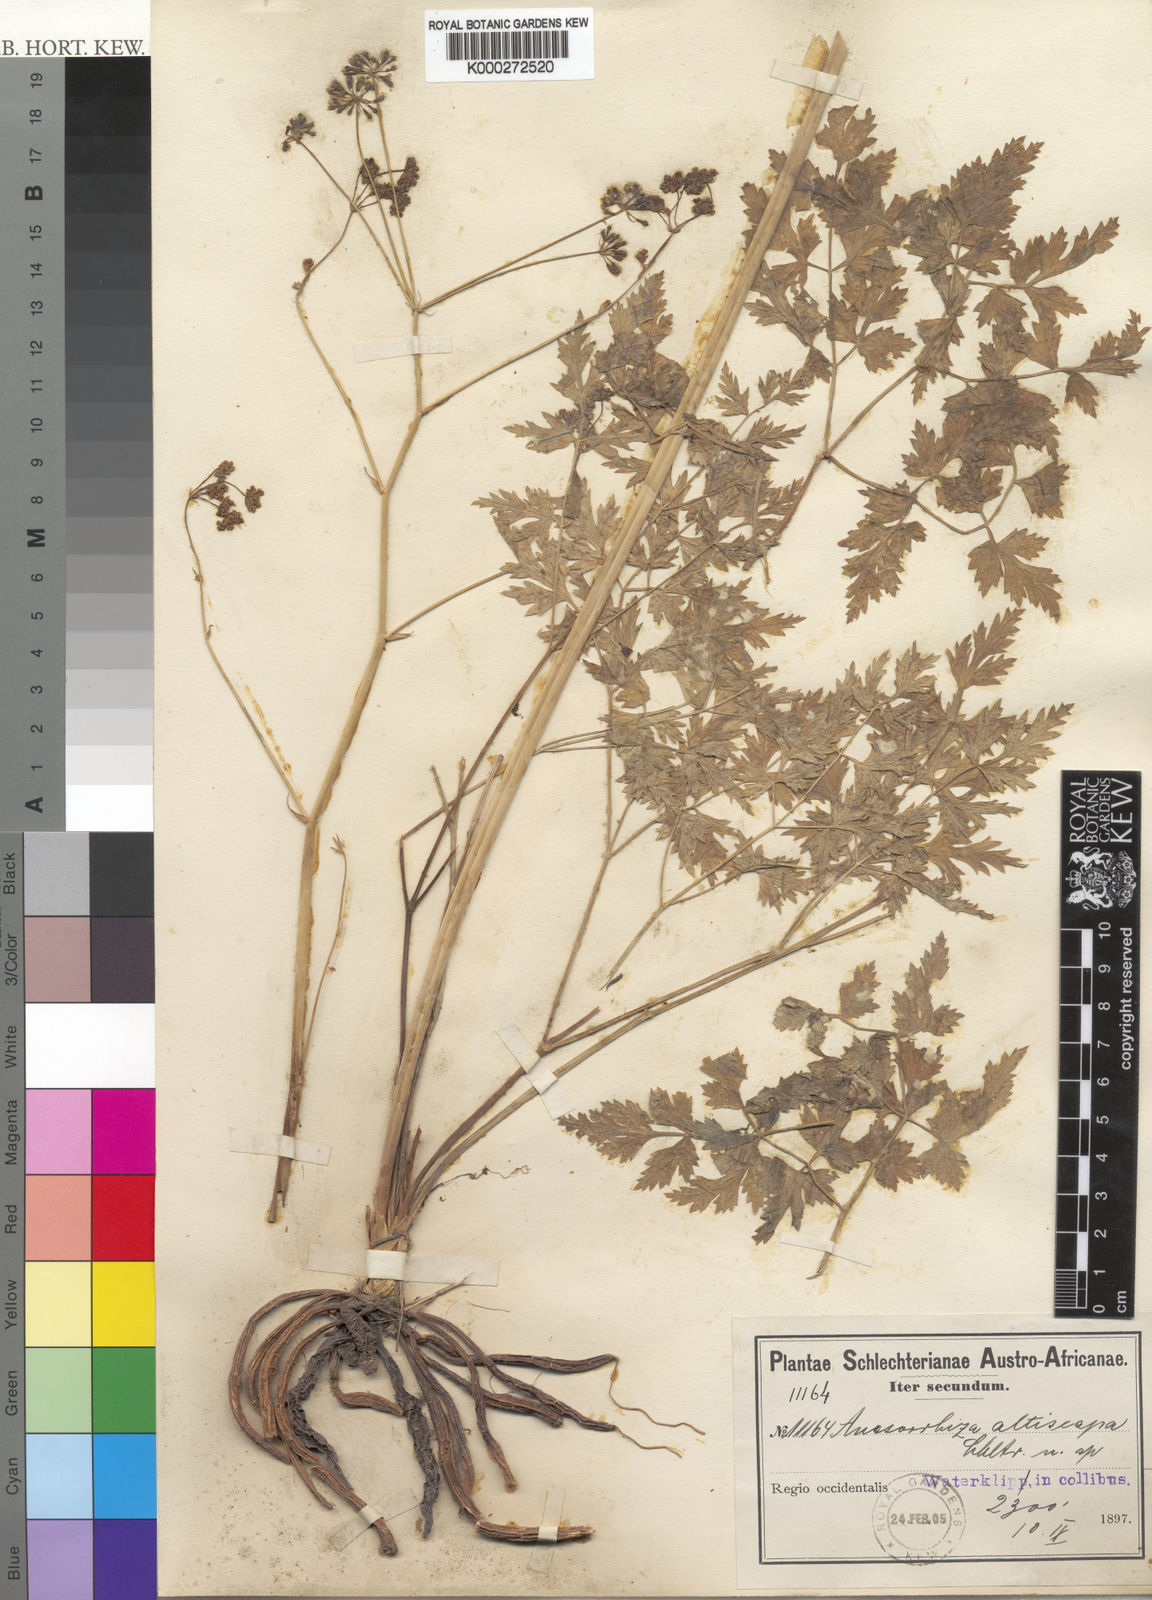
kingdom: Plantae
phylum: Tracheophyta
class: Magnoliopsida
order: Apiales
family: Apiaceae
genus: Annesorhiza
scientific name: Annesorhiza
